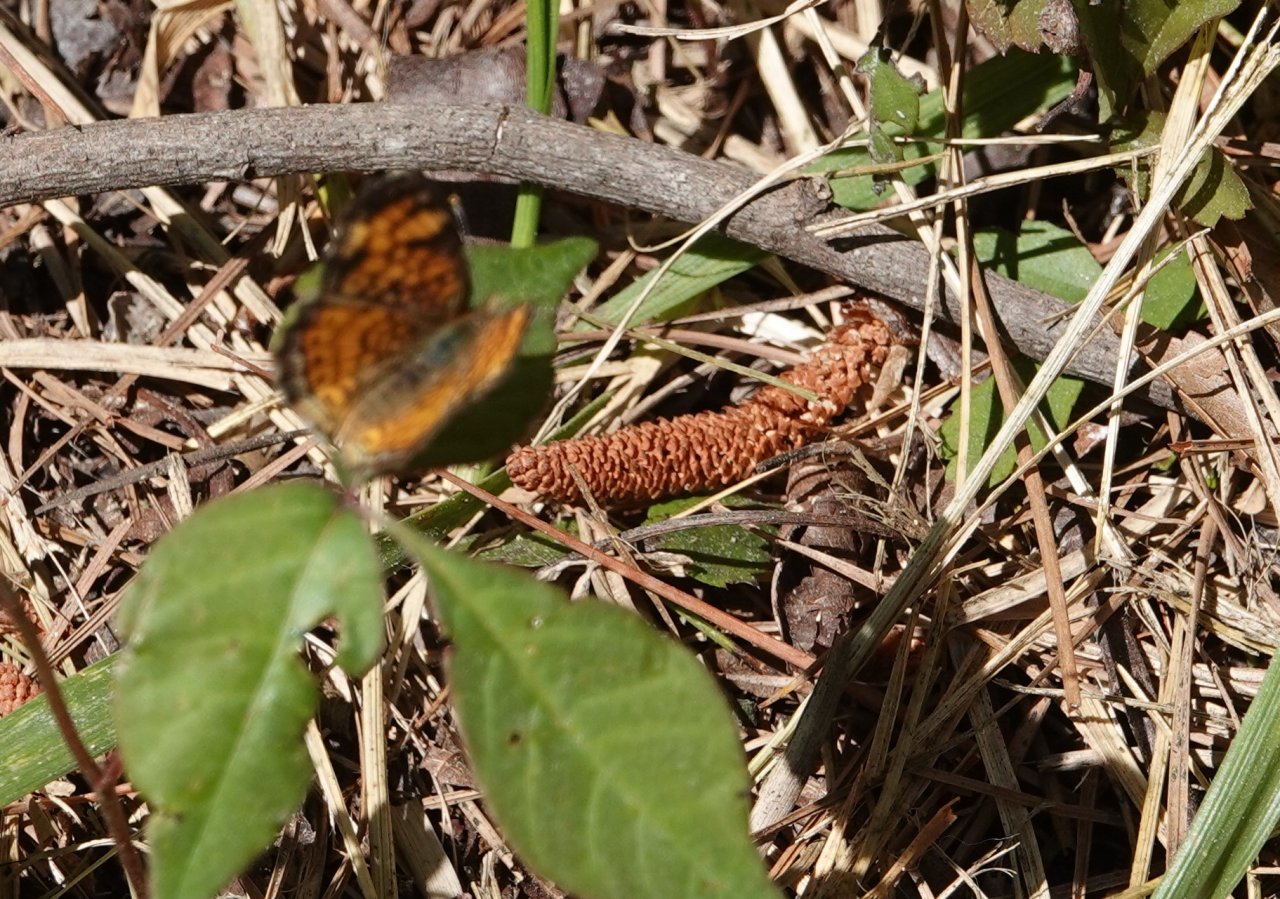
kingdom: Animalia
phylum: Arthropoda
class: Insecta
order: Lepidoptera
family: Nymphalidae
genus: Phyciodes
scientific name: Phyciodes tharos
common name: Pearl Crescent
